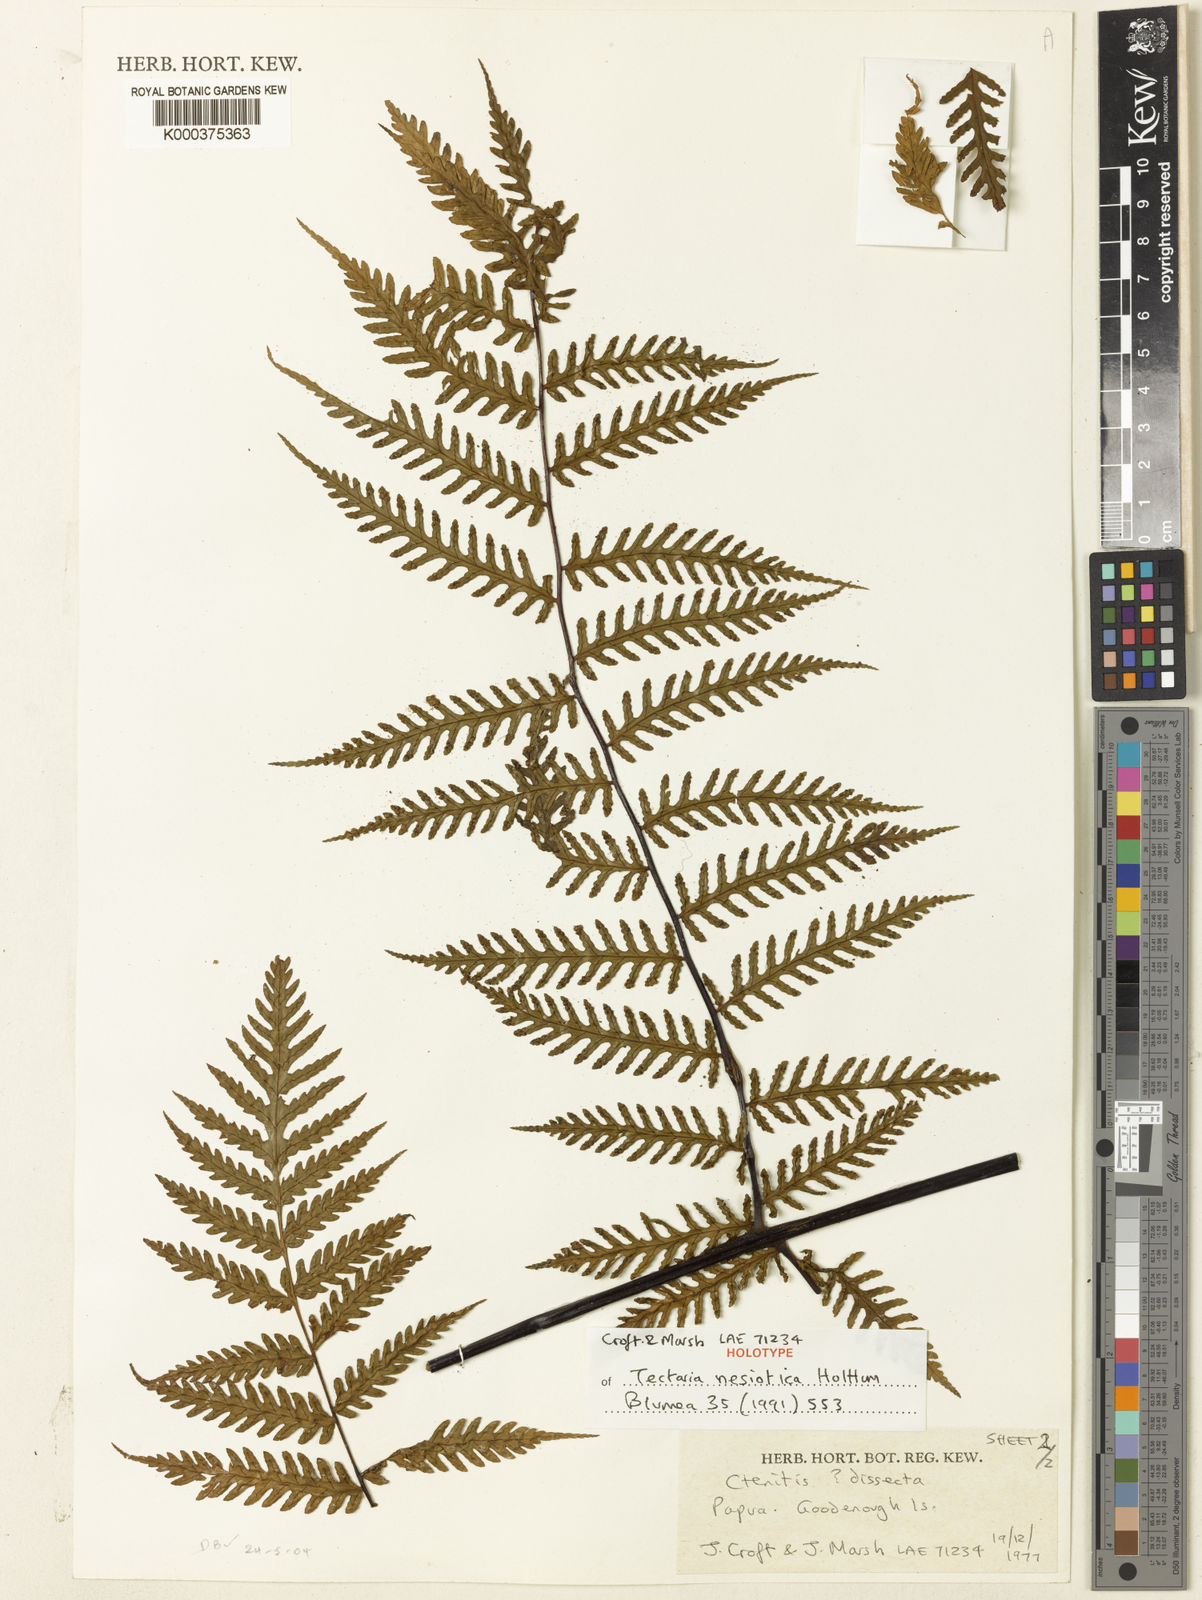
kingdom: Plantae
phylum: Tracheophyta
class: Polypodiopsida
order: Polypodiales
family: Dryopteridaceae
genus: Pleocnemia
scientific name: Pleocnemia nesiotica
